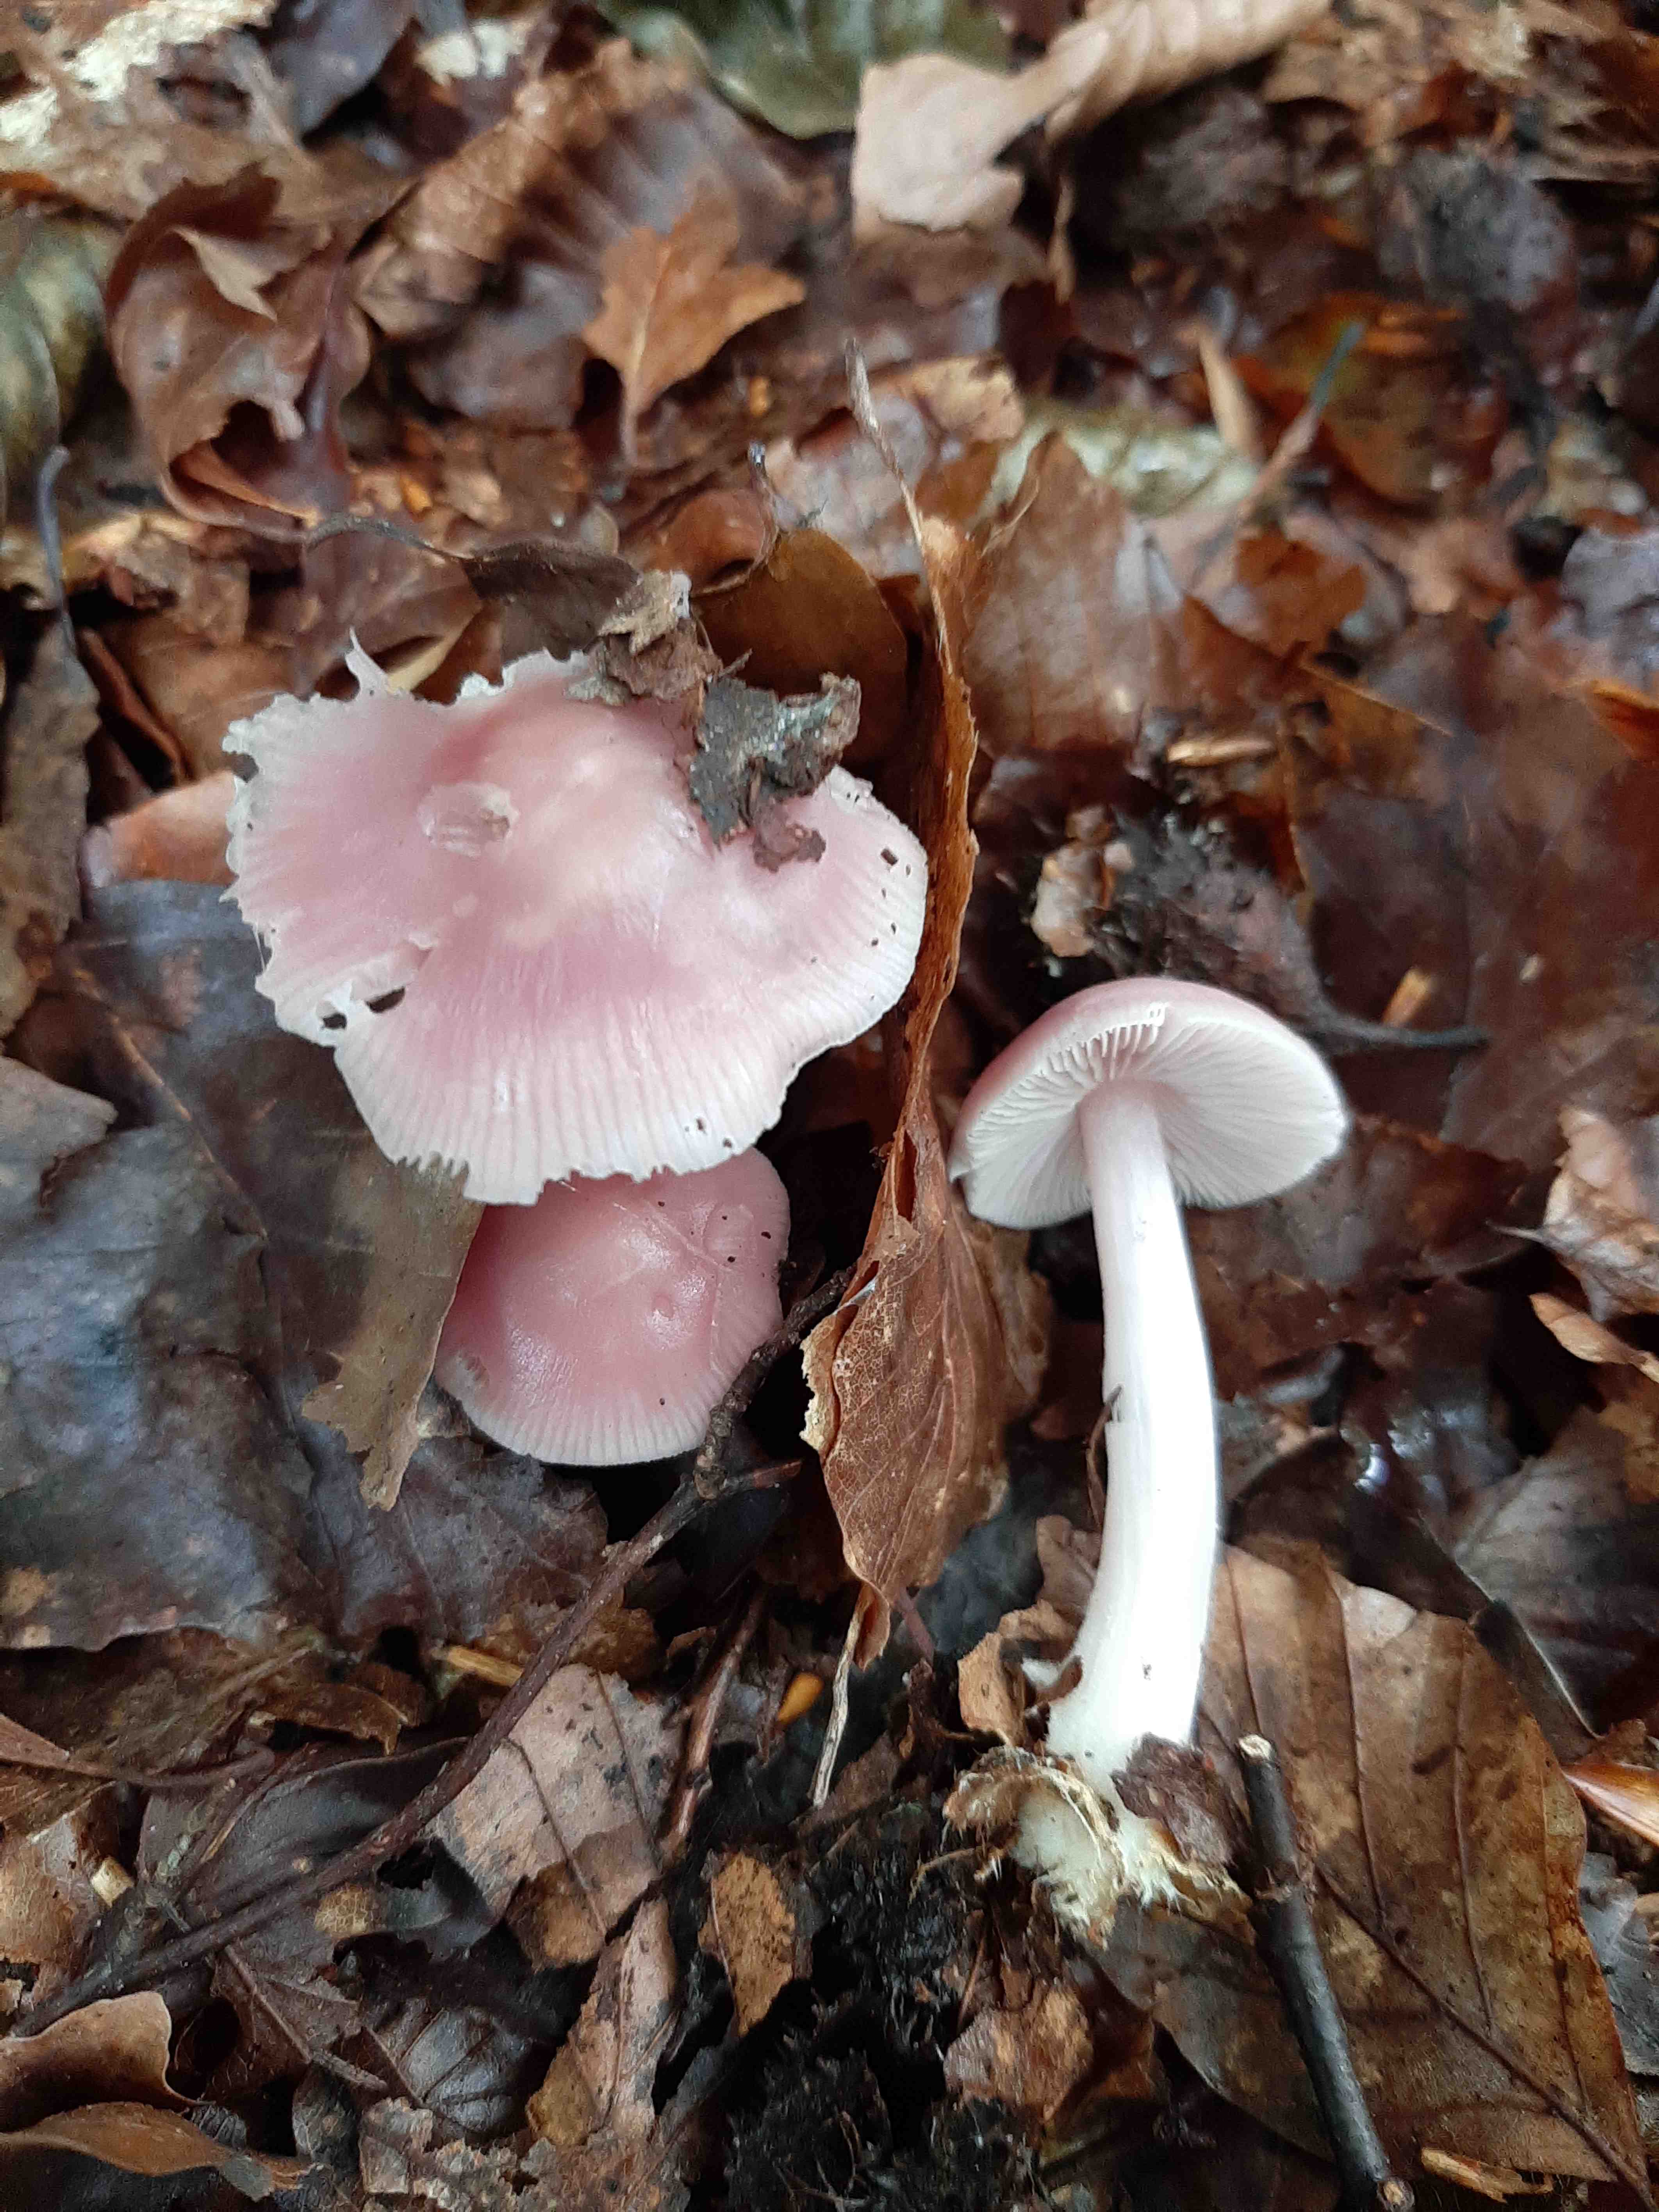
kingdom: Fungi
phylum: Basidiomycota
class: Agaricomycetes
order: Agaricales
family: Mycenaceae
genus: Mycena
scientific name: Mycena rosea
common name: rosa huesvamp
